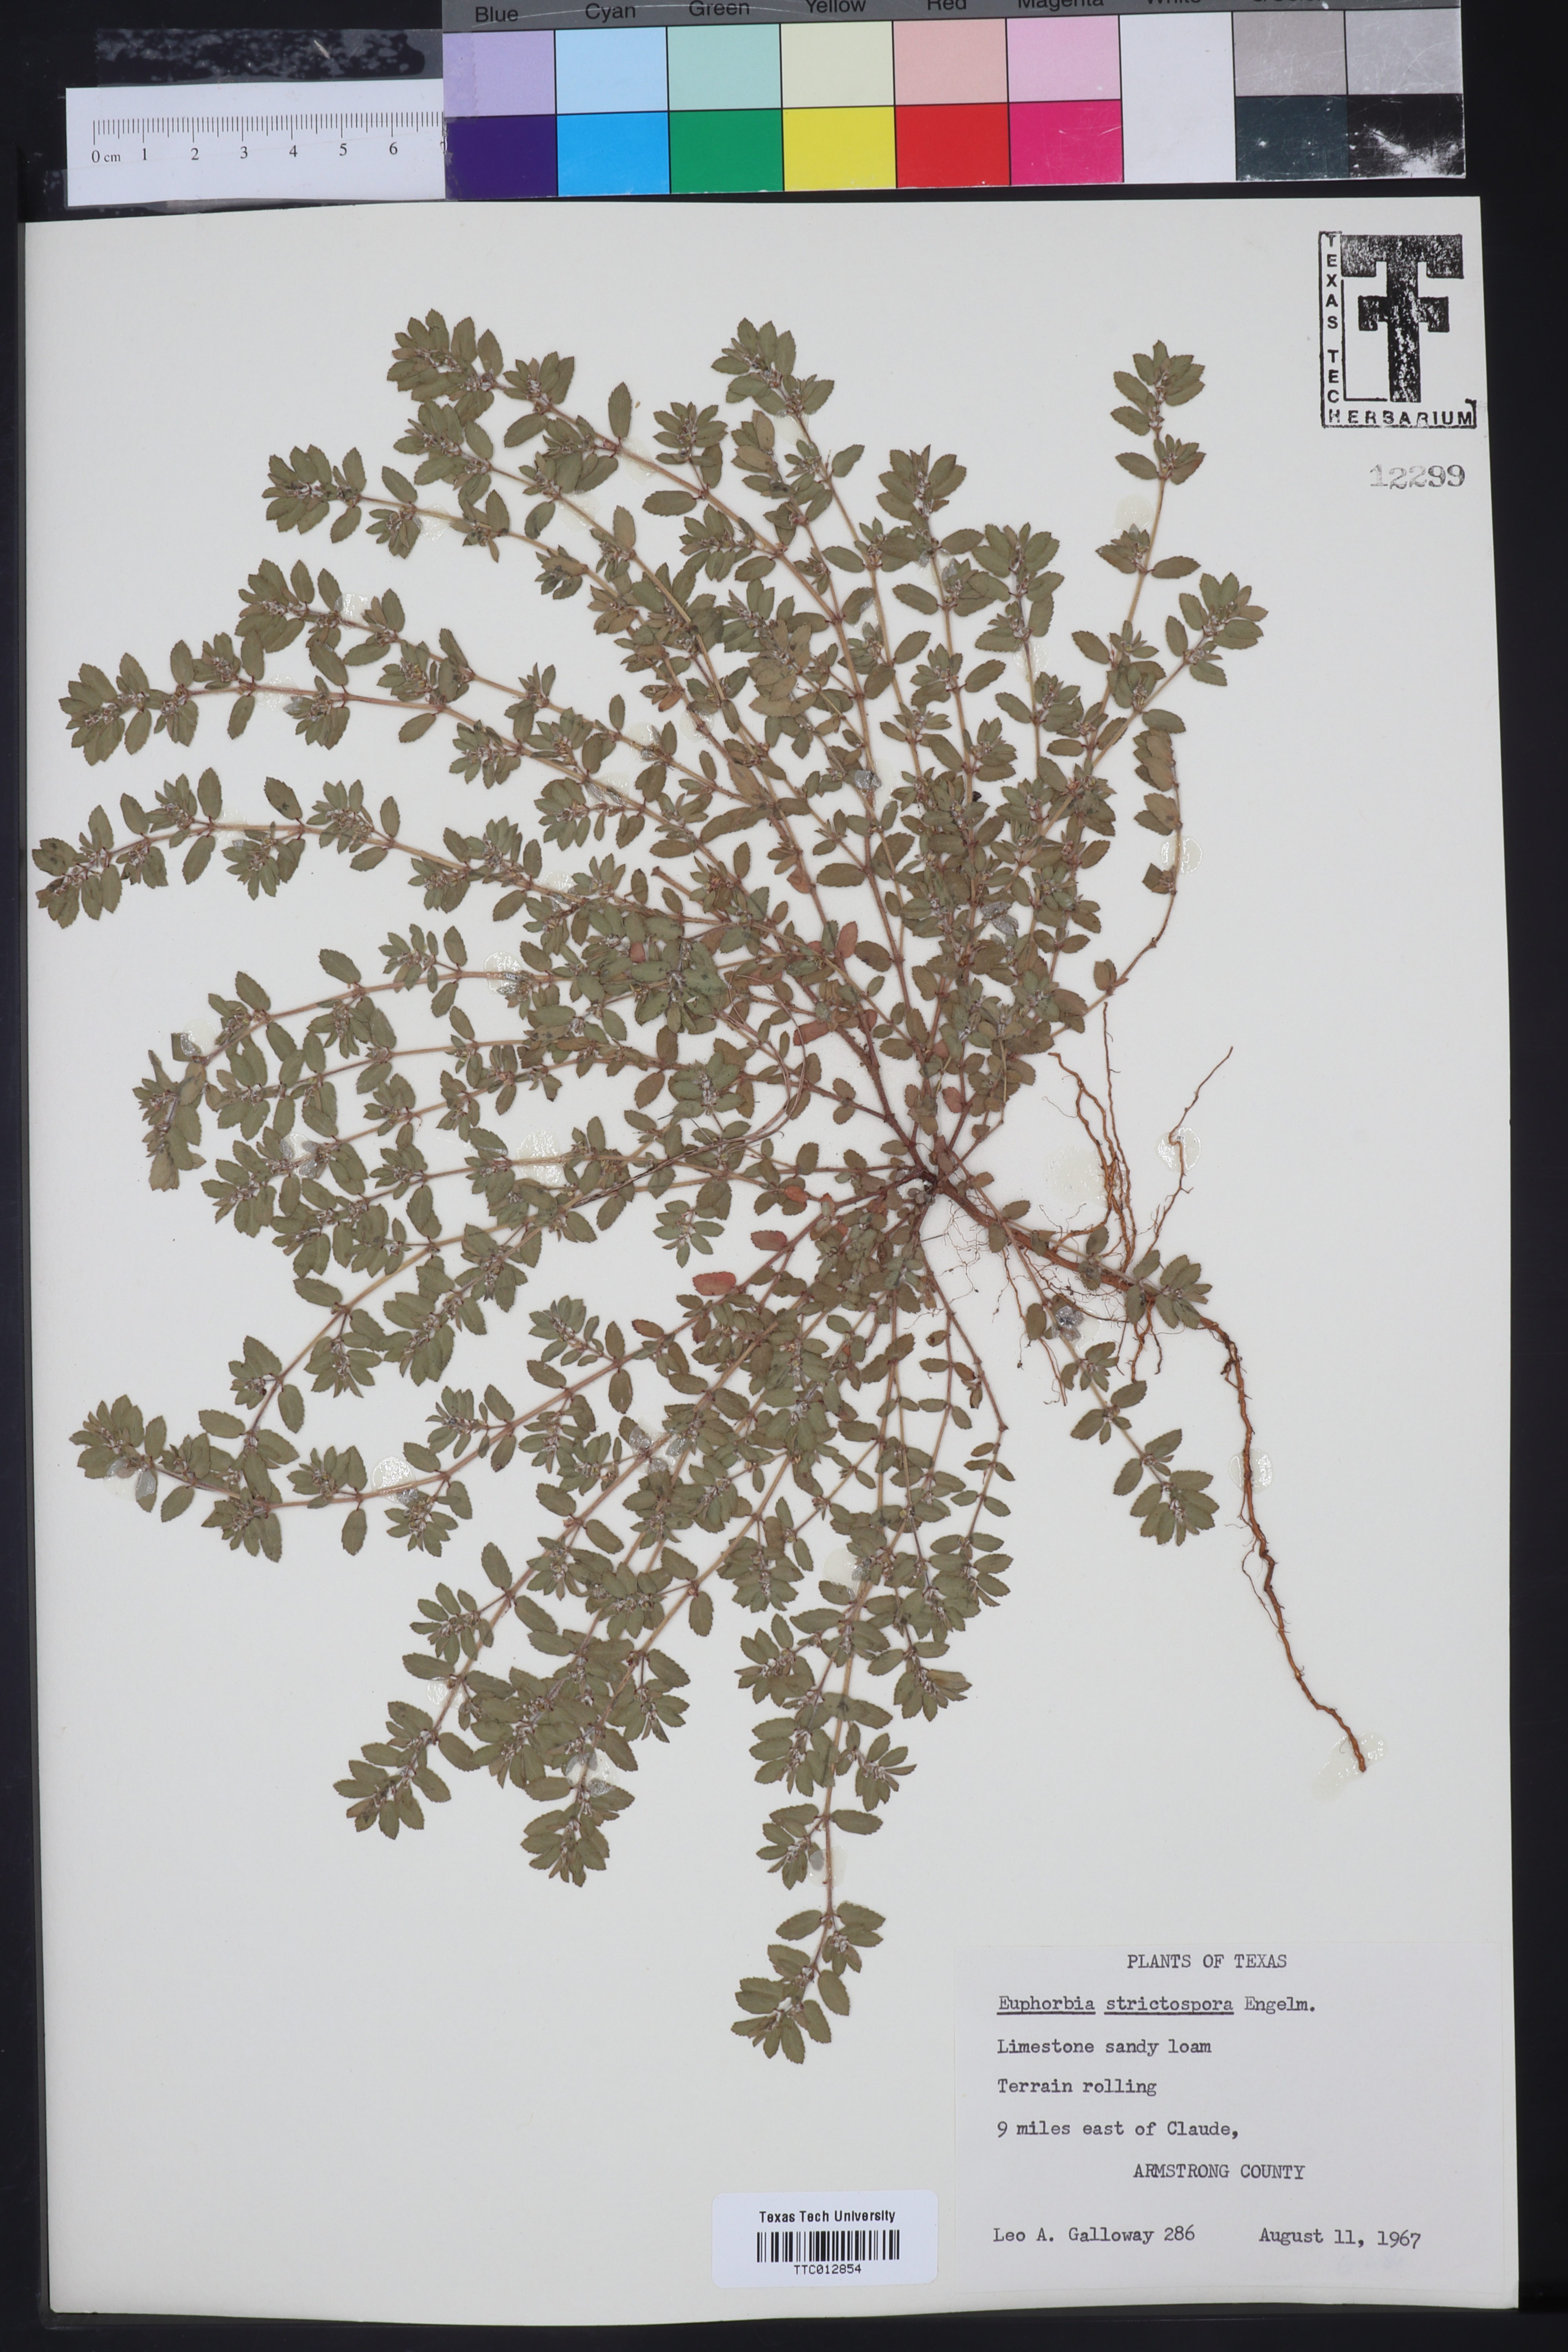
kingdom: Plantae
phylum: Tracheophyta
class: Magnoliopsida
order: Malpighiales
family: Euphorbiaceae
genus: Euphorbia
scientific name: Euphorbia stictospora
